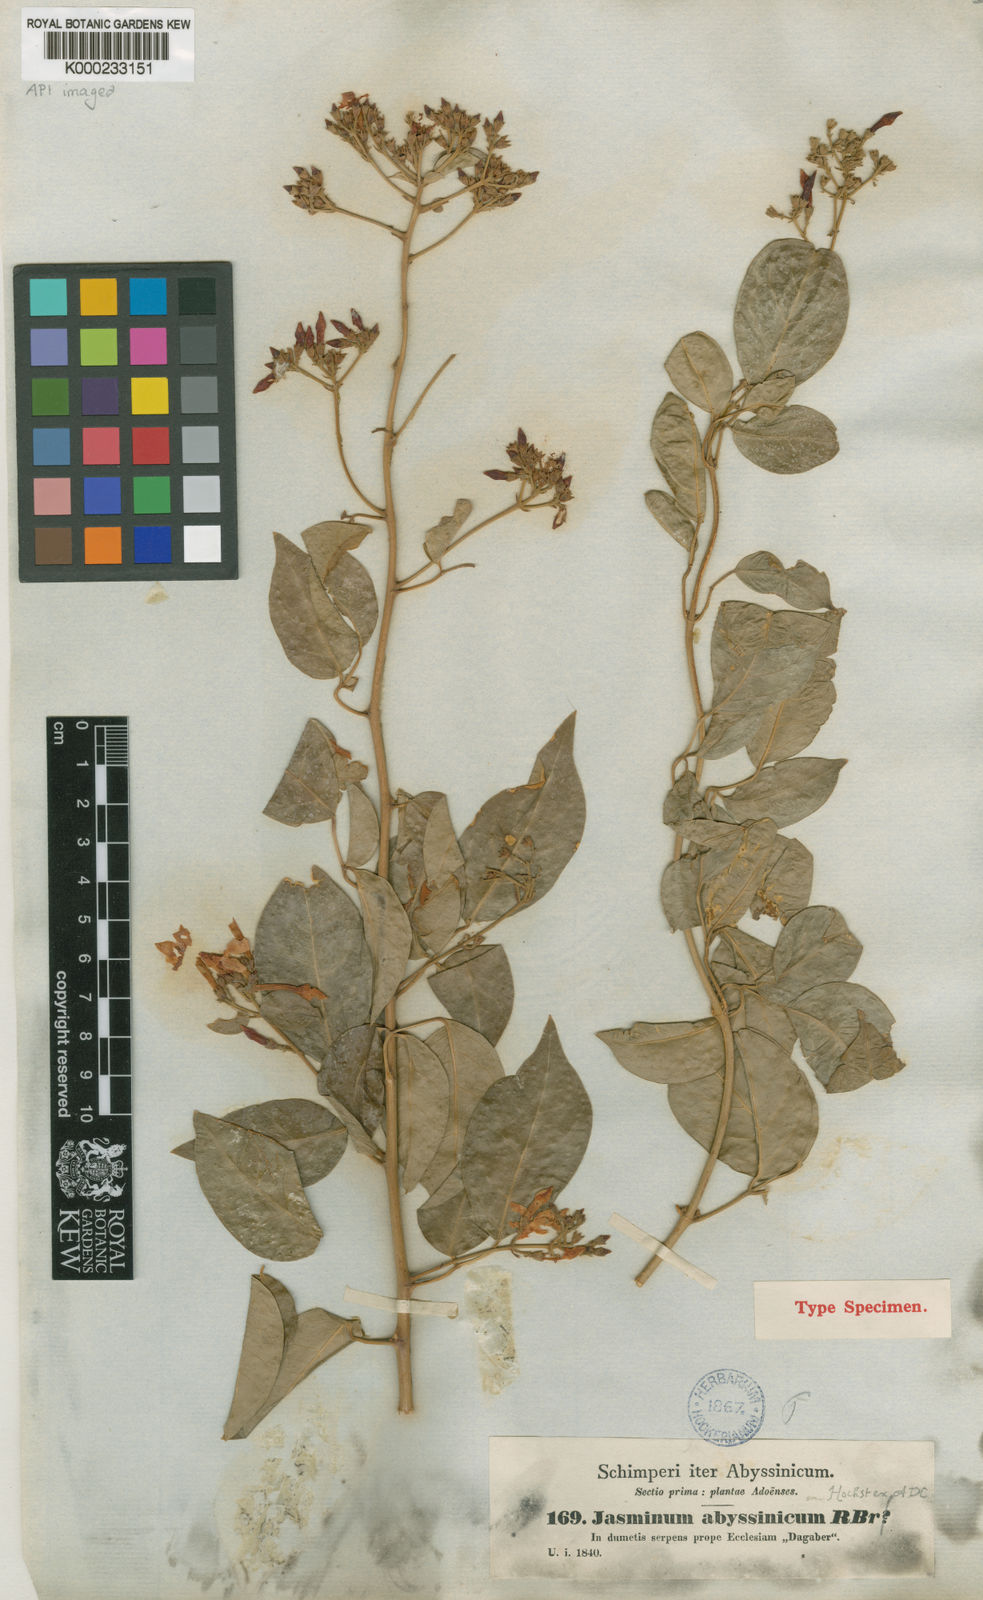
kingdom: Plantae
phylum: Tracheophyta
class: Magnoliopsida
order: Lamiales
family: Oleaceae
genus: Jasminum
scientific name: Jasminum abyssinicum
